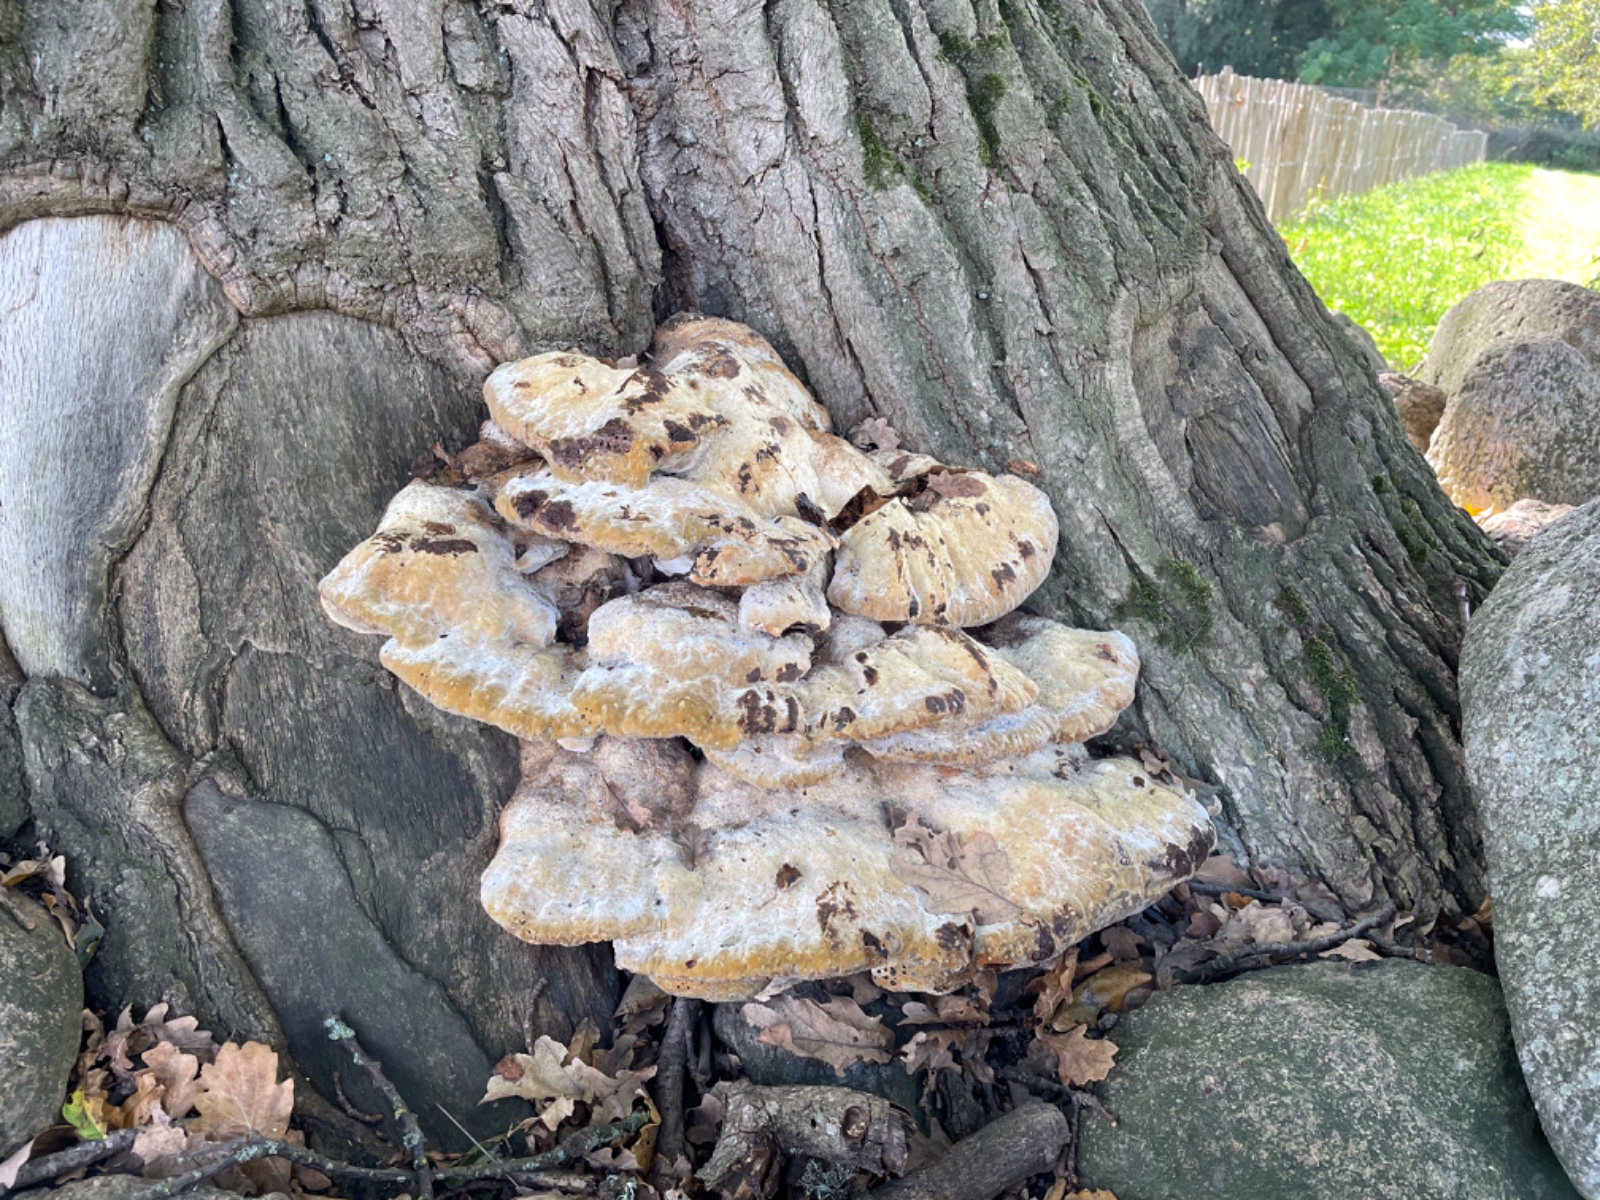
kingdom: Fungi
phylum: Basidiomycota
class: Agaricomycetes
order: Hymenochaetales
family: Hymenochaetaceae
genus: Pseudoinonotus
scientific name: Pseudoinonotus dryadeus
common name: ege-spejlporesvamp
